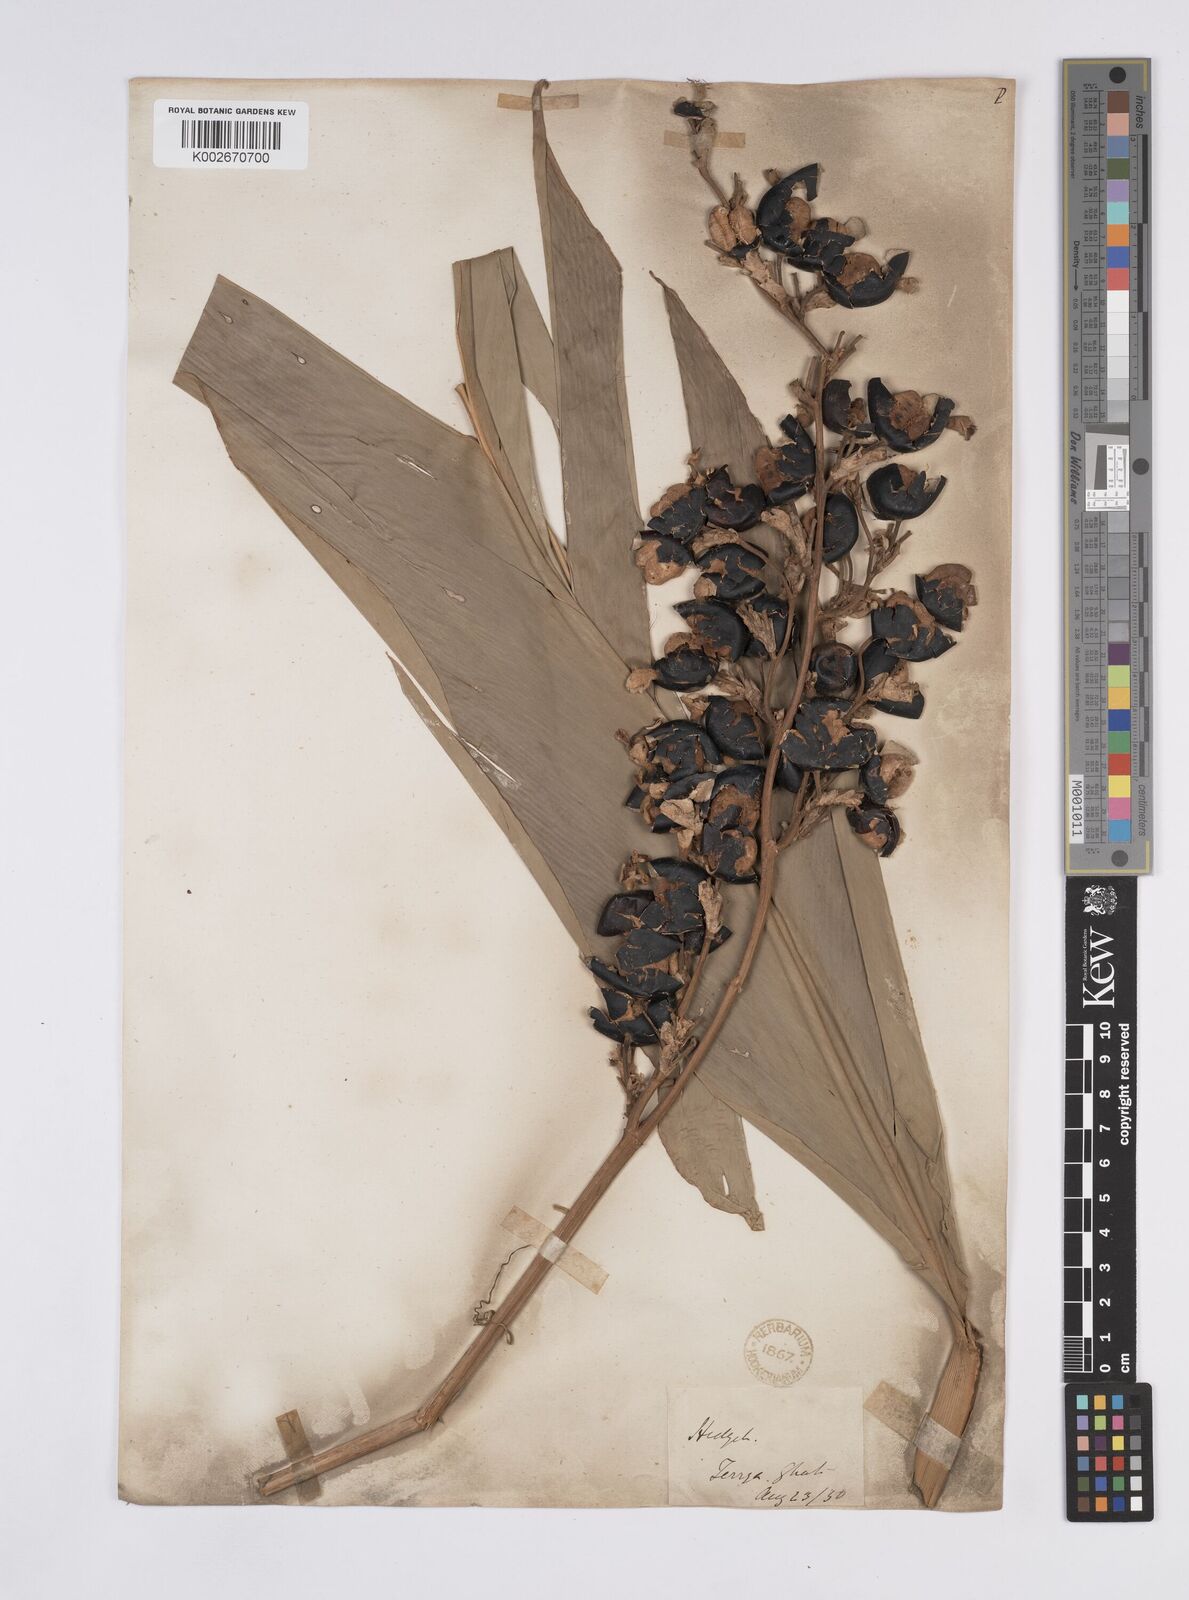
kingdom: Plantae
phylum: Tracheophyta
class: Liliopsida
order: Zingiberales
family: Zingiberaceae
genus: Alpinia
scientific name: Alpinia nigra
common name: Black fruited galanga
